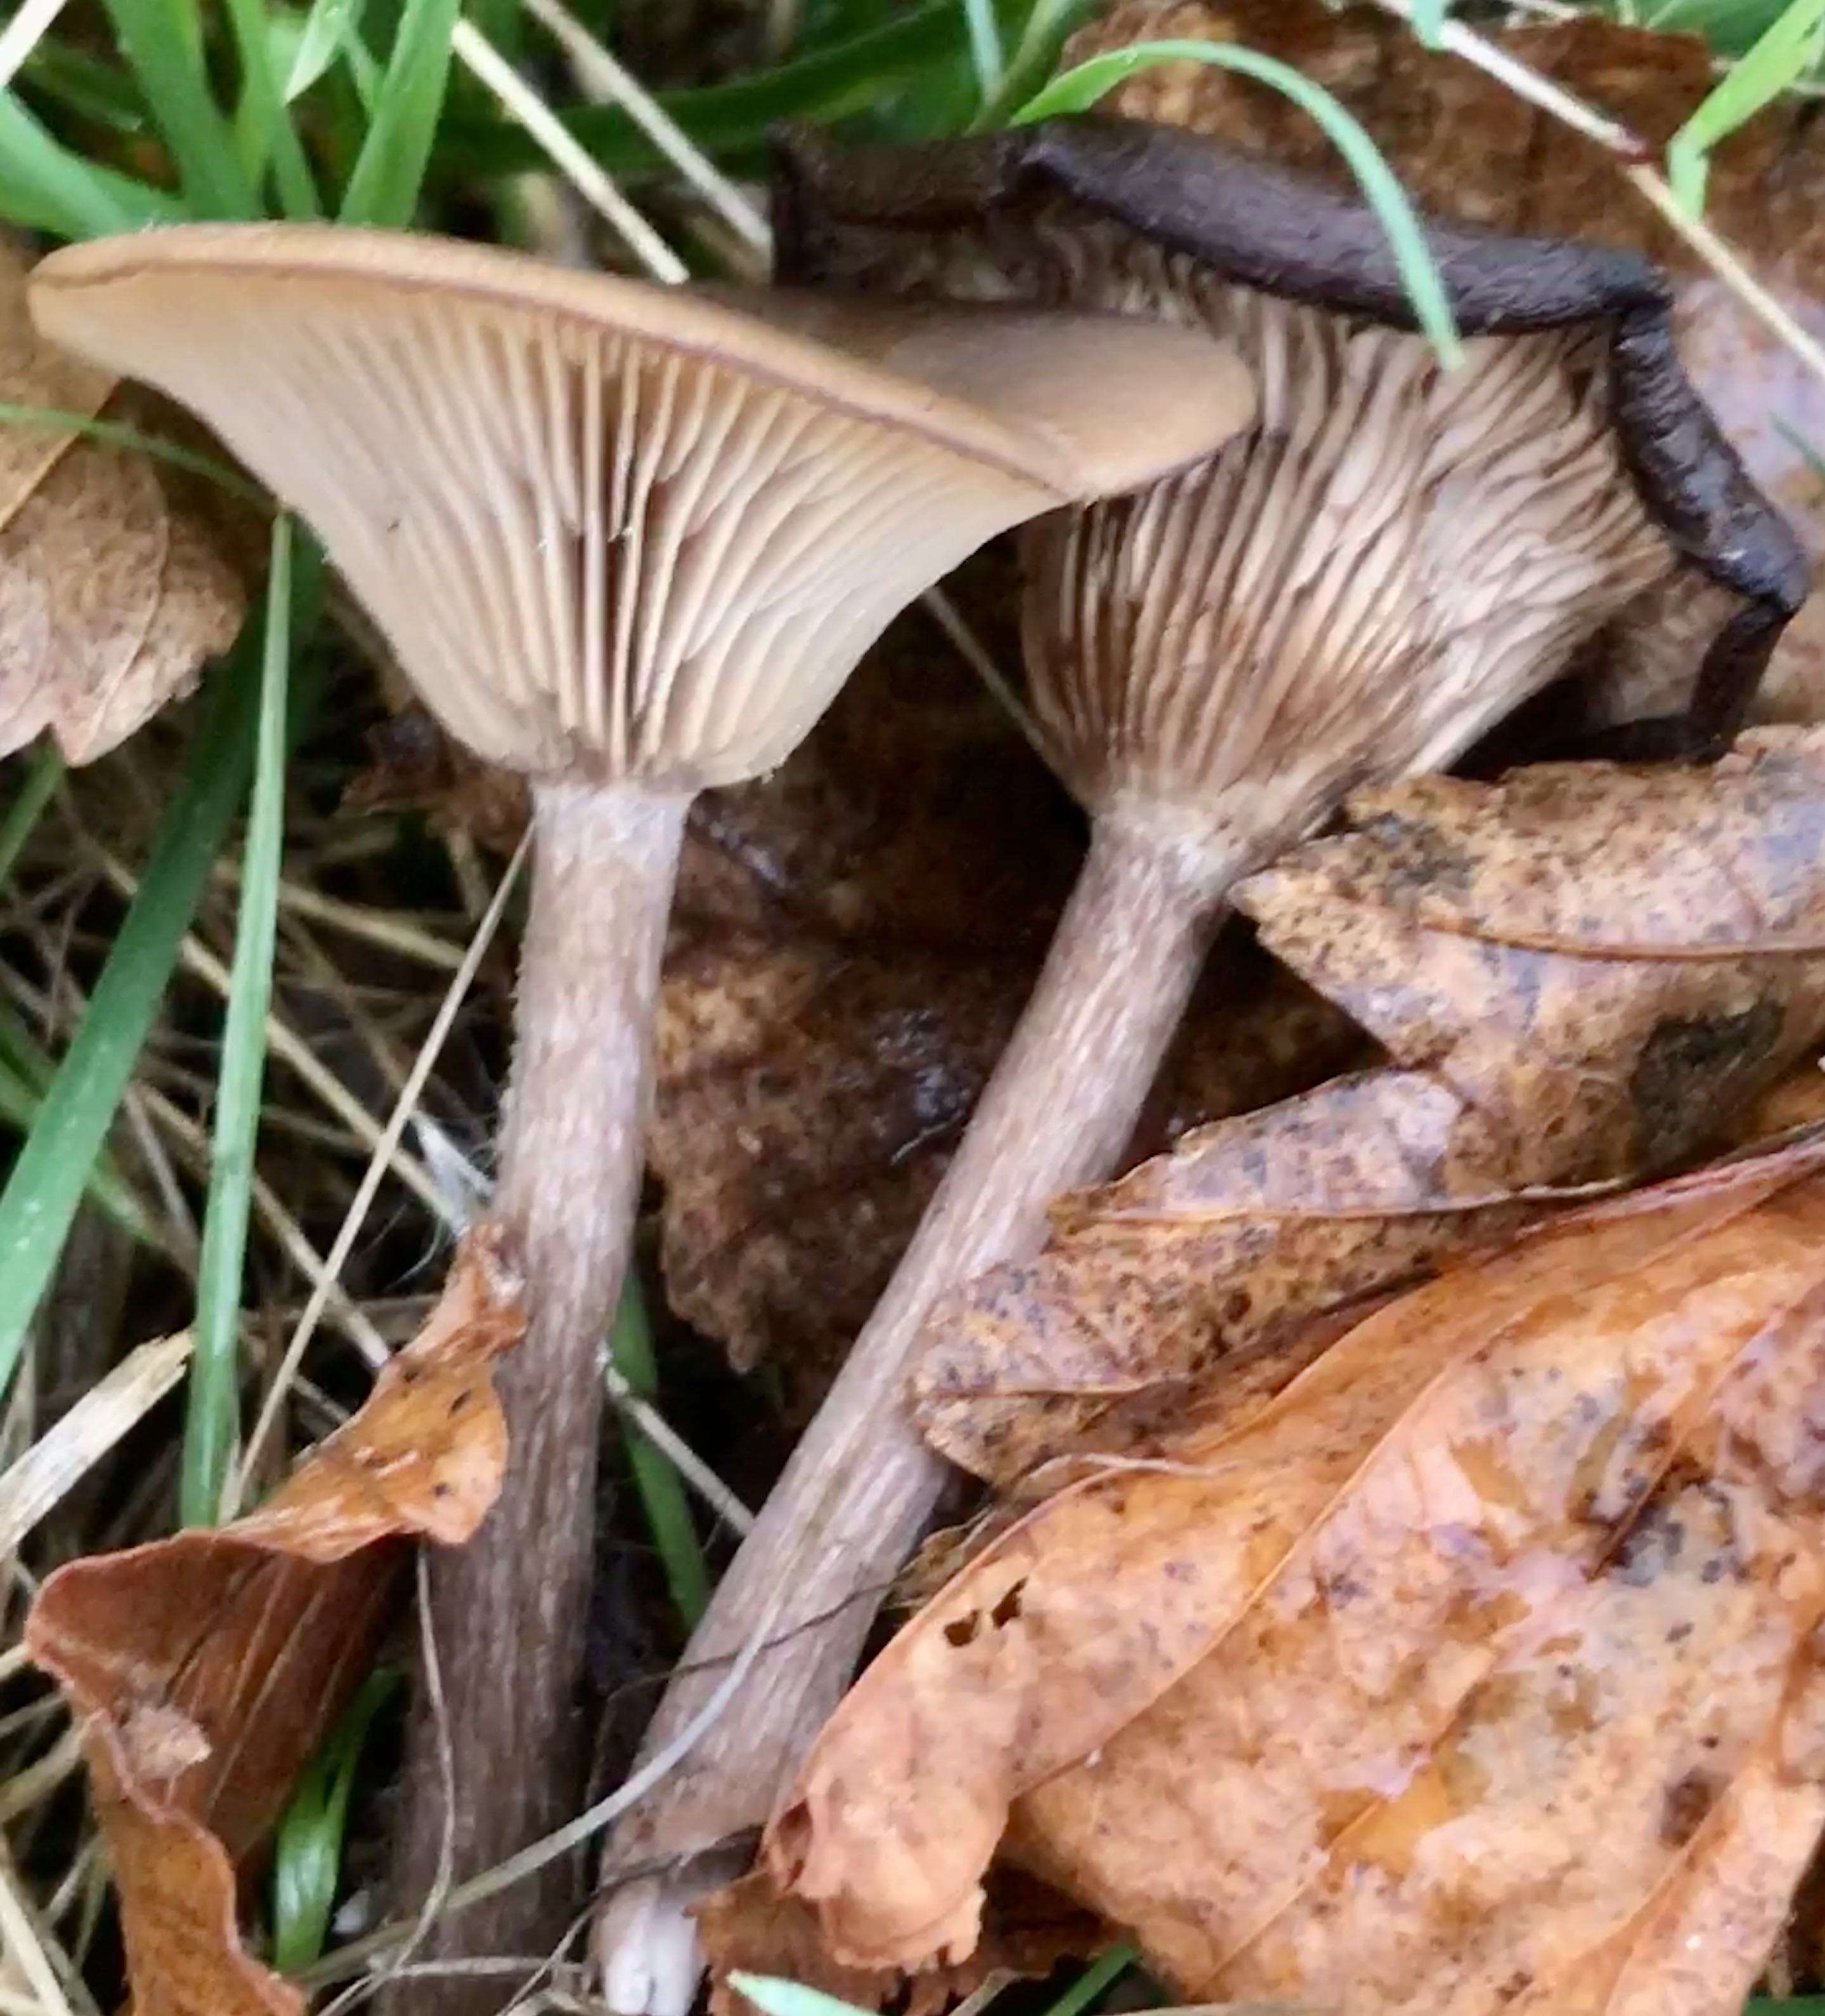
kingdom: Fungi
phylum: Basidiomycota
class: Agaricomycetes
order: Agaricales
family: Pseudoclitocybaceae
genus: Pseudoclitocybe
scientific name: Pseudoclitocybe cyathiformis
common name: almindelig bægertragthat
